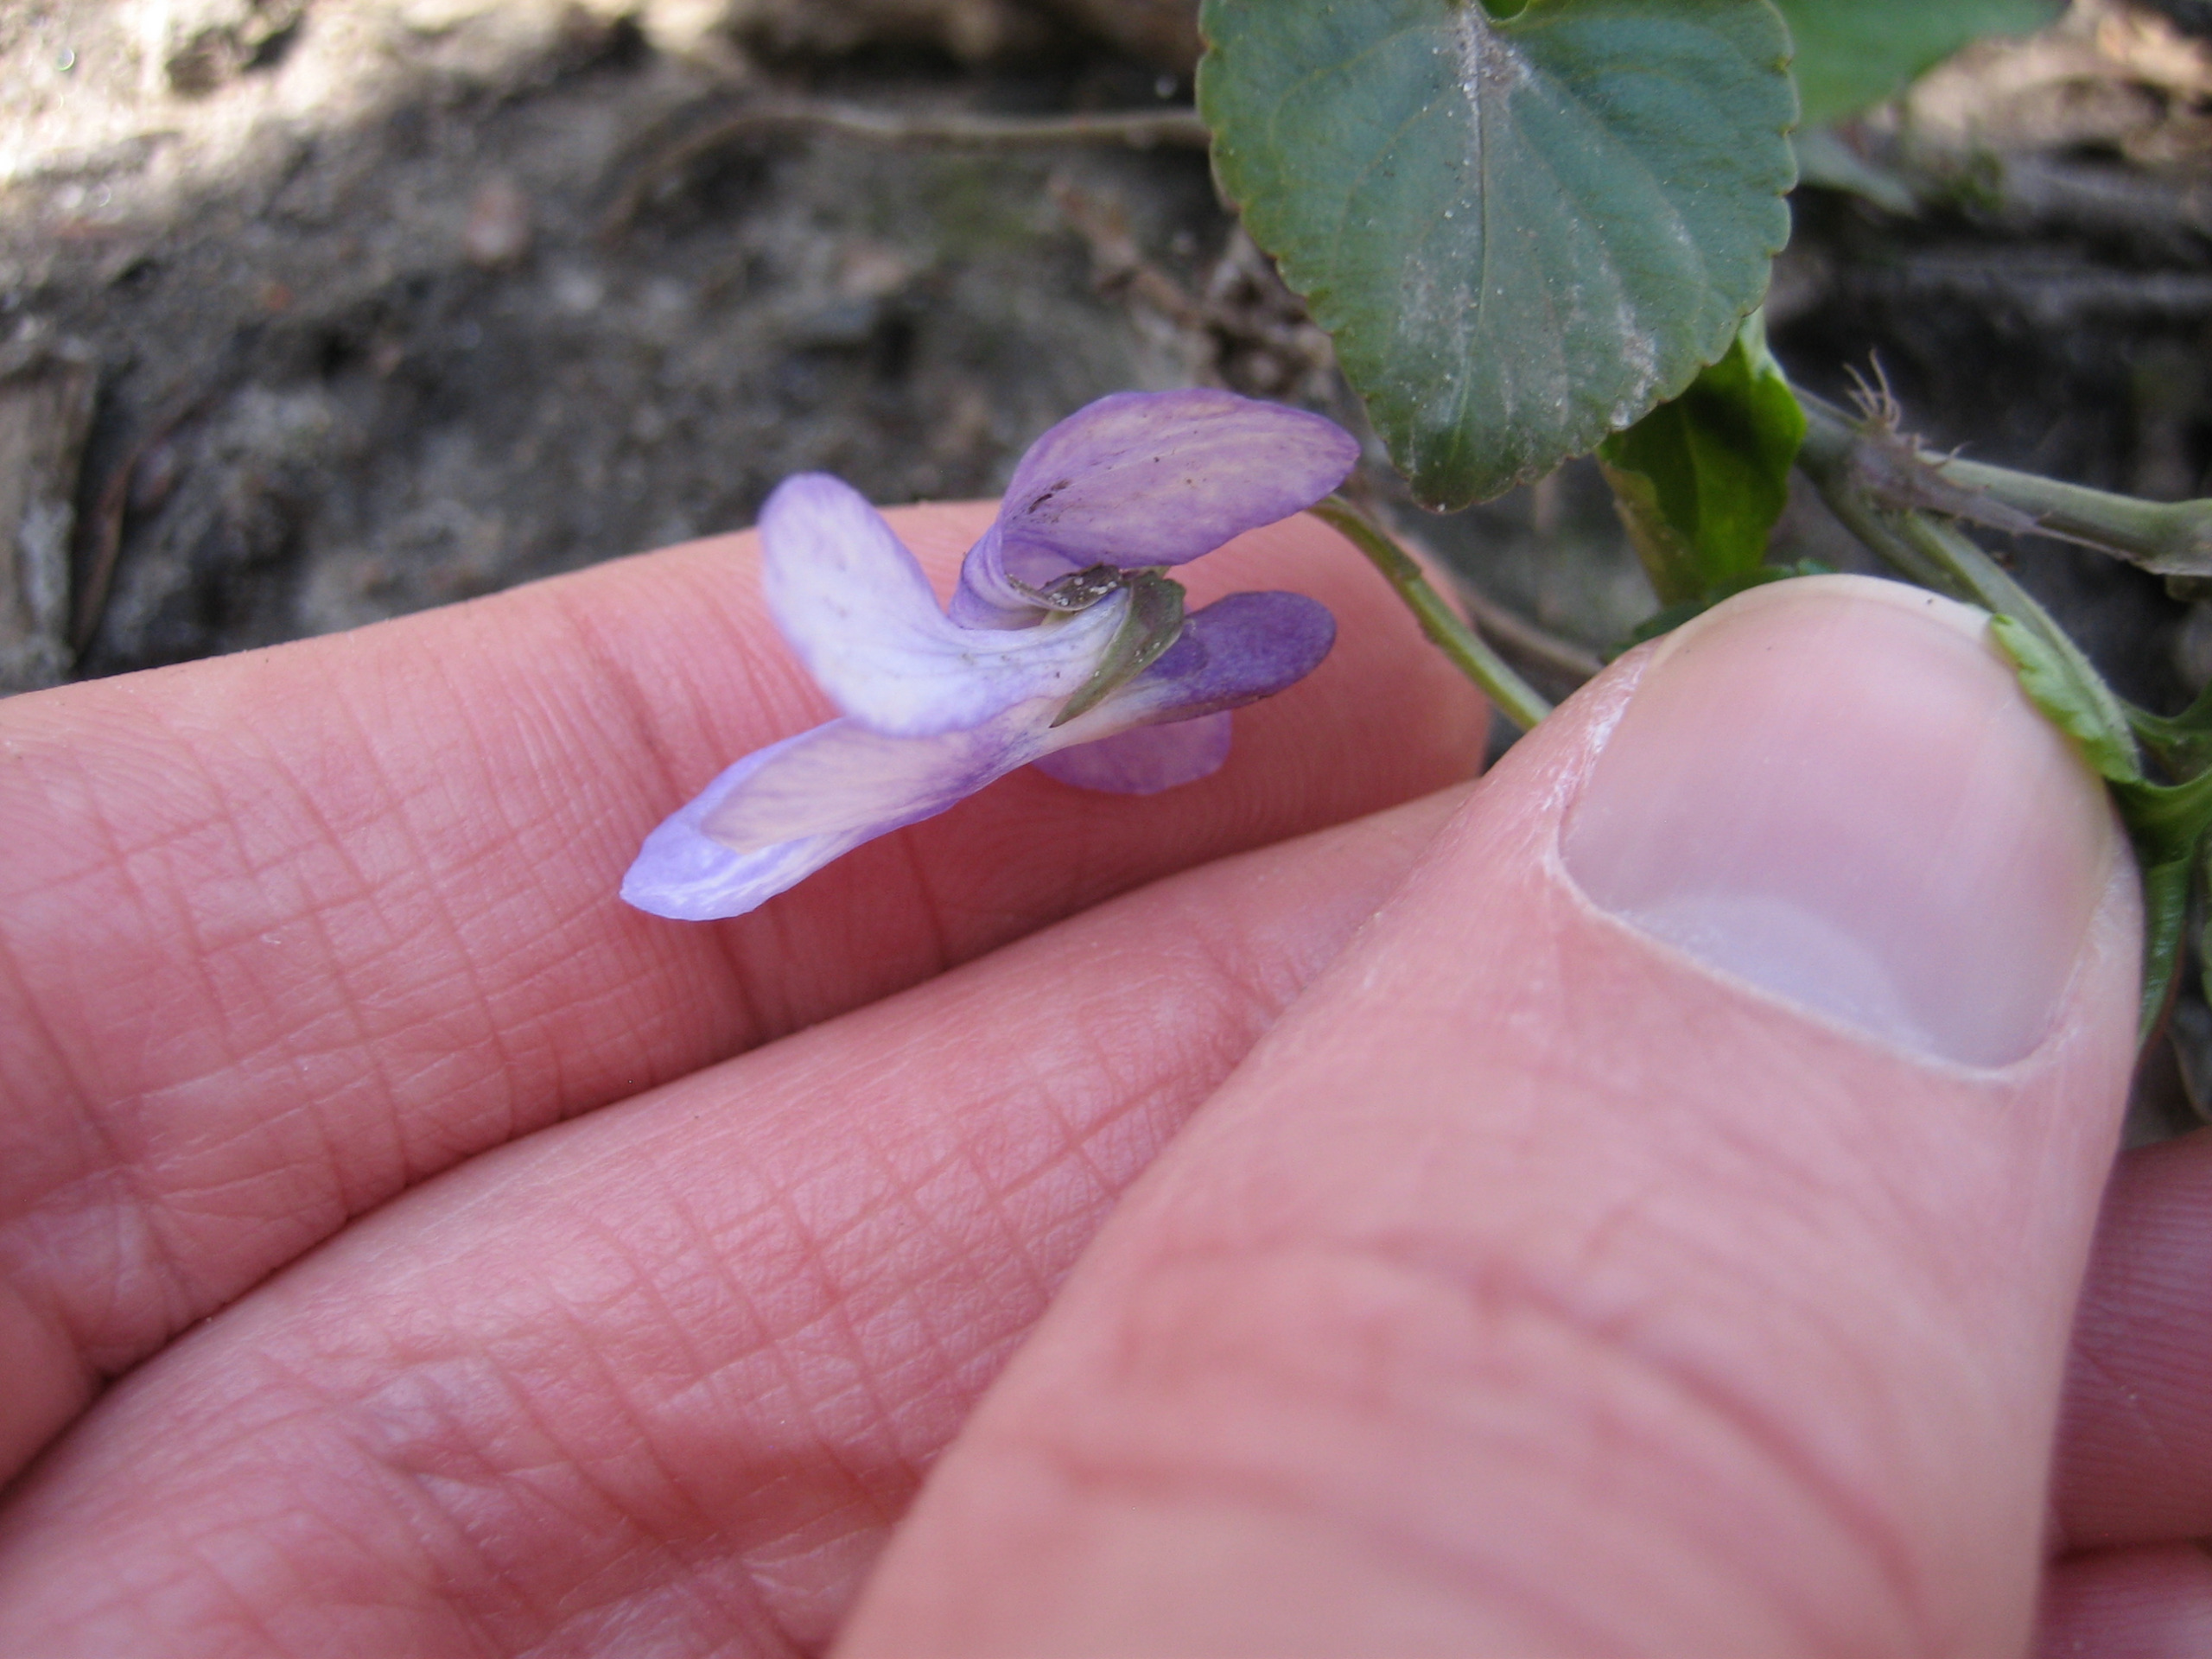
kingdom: Plantae
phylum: Tracheophyta
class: Magnoliopsida
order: Malpighiales
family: Violaceae
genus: Viola
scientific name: Viola reichenbachiana
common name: Skov-viol
